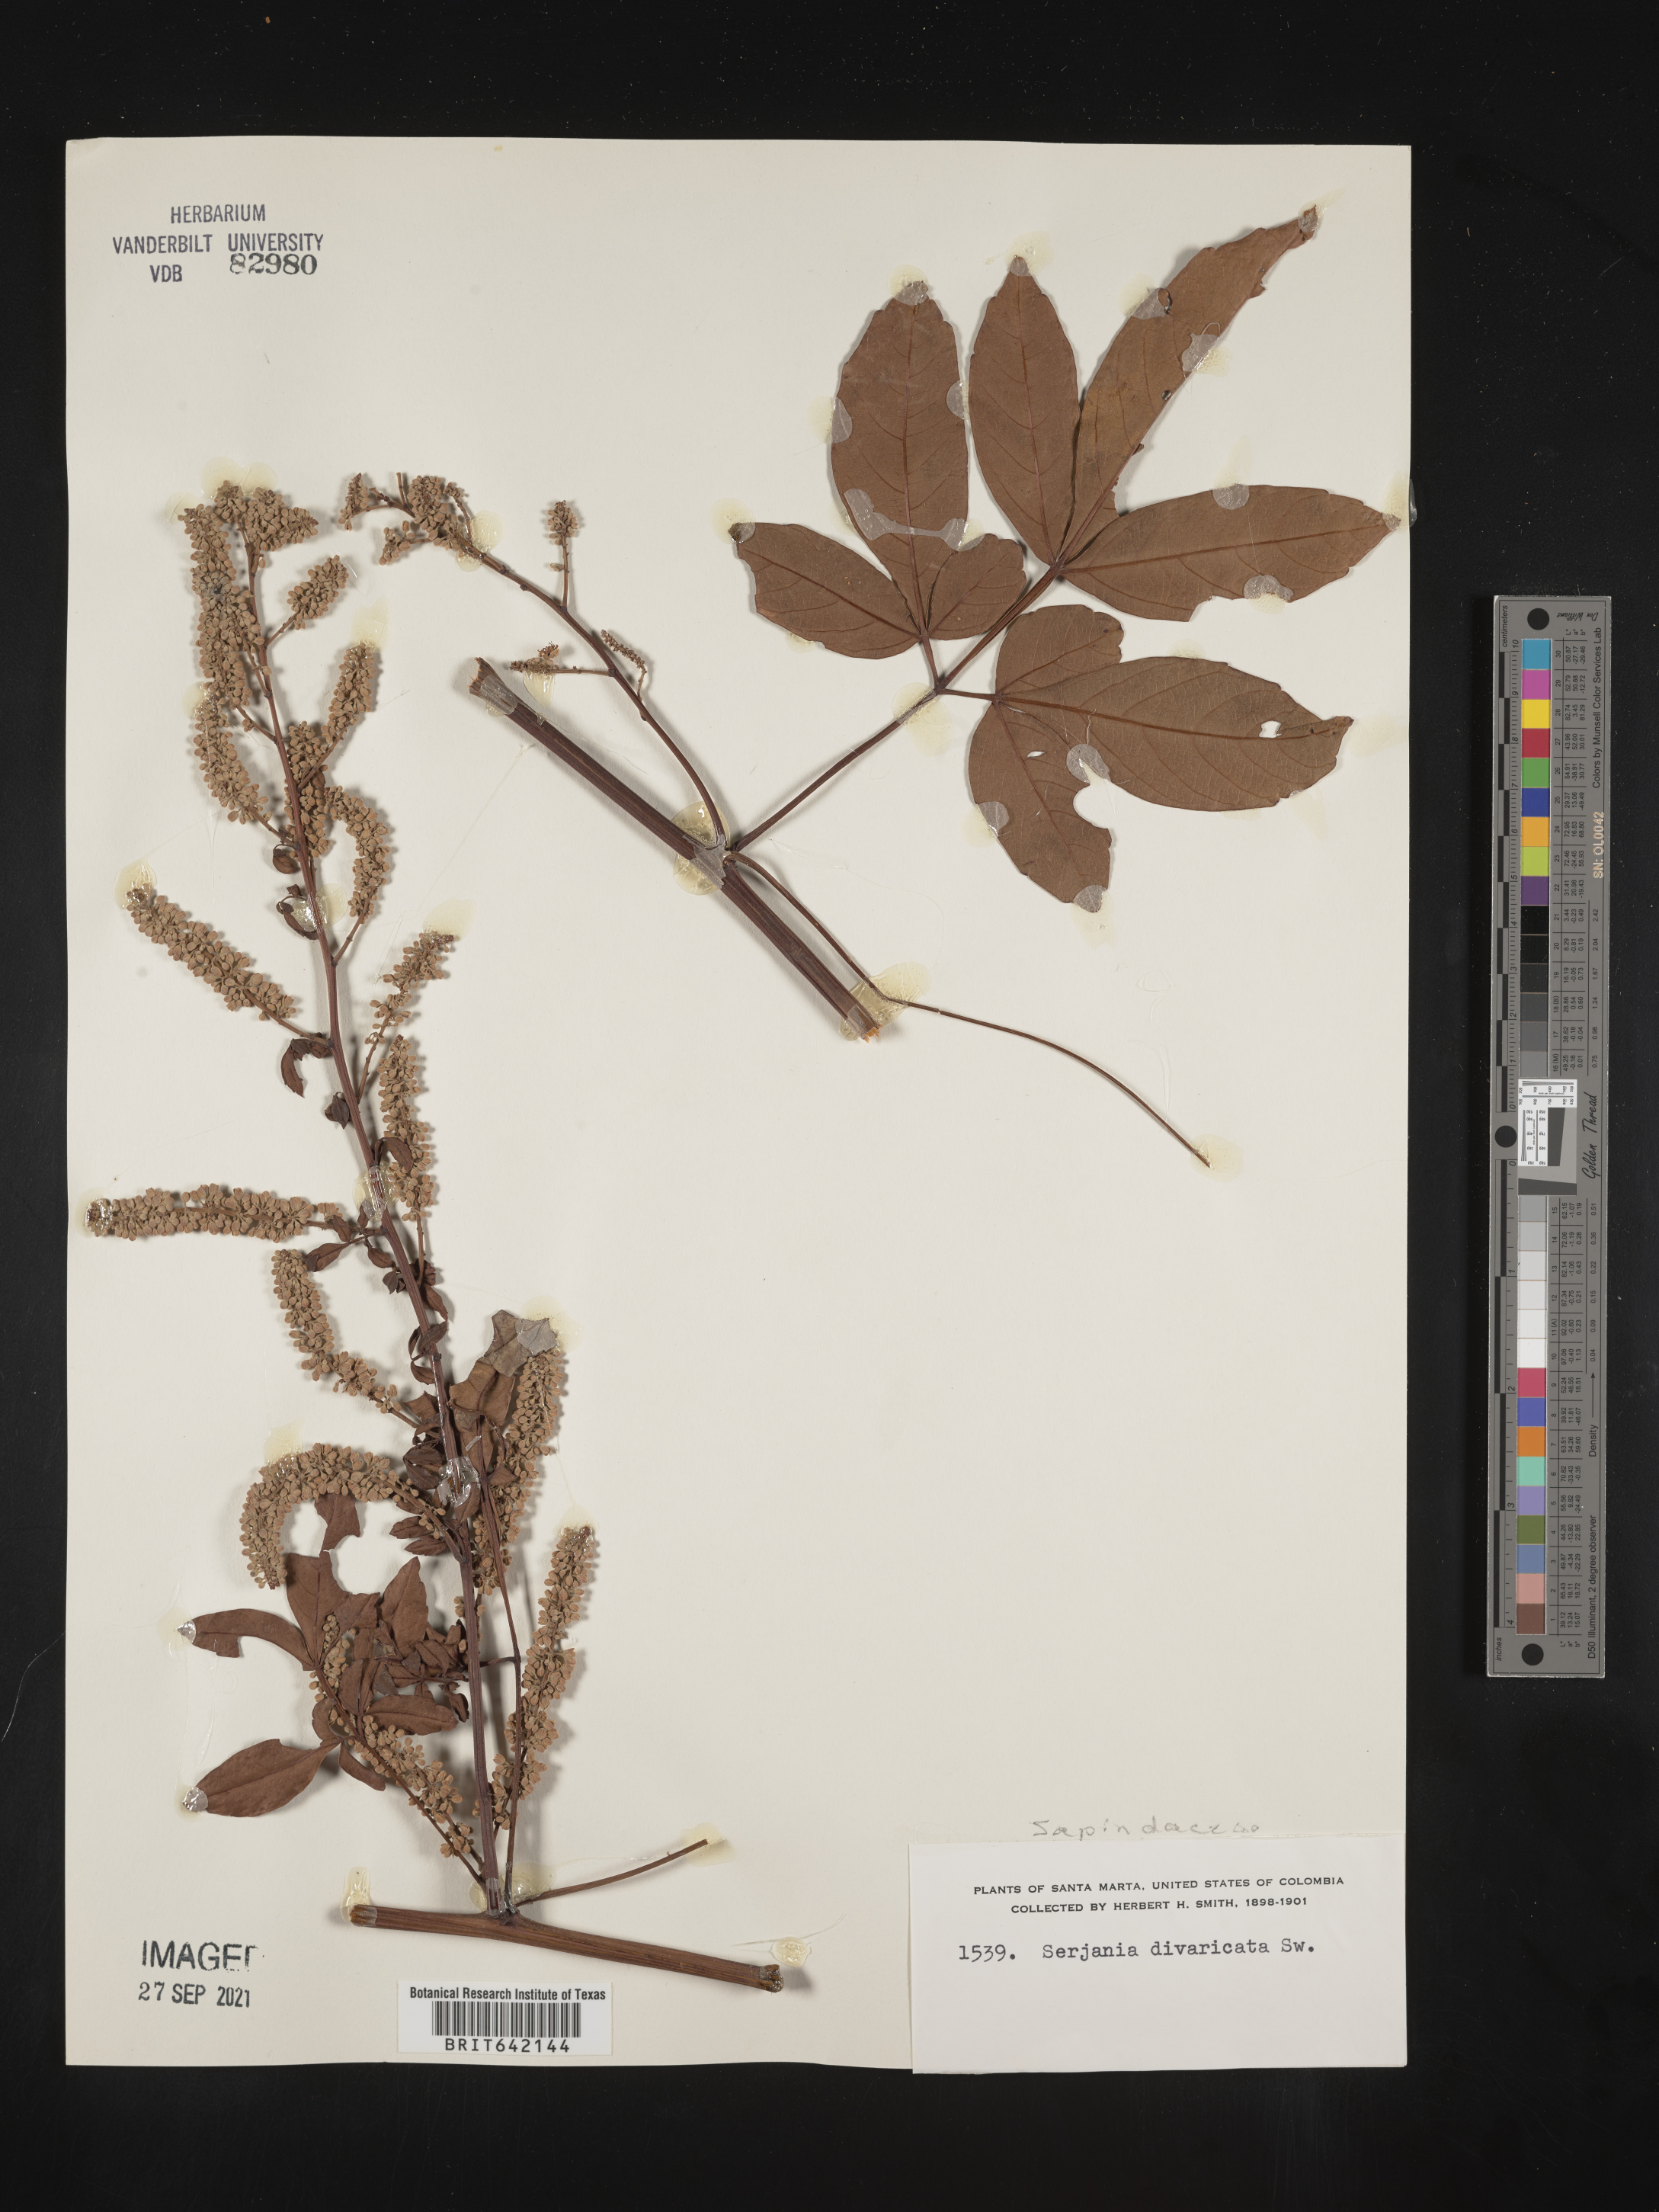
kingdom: Plantae
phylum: Tracheophyta
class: Magnoliopsida
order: Sapindales
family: Sapindaceae
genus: Serjania
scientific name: Serjania
